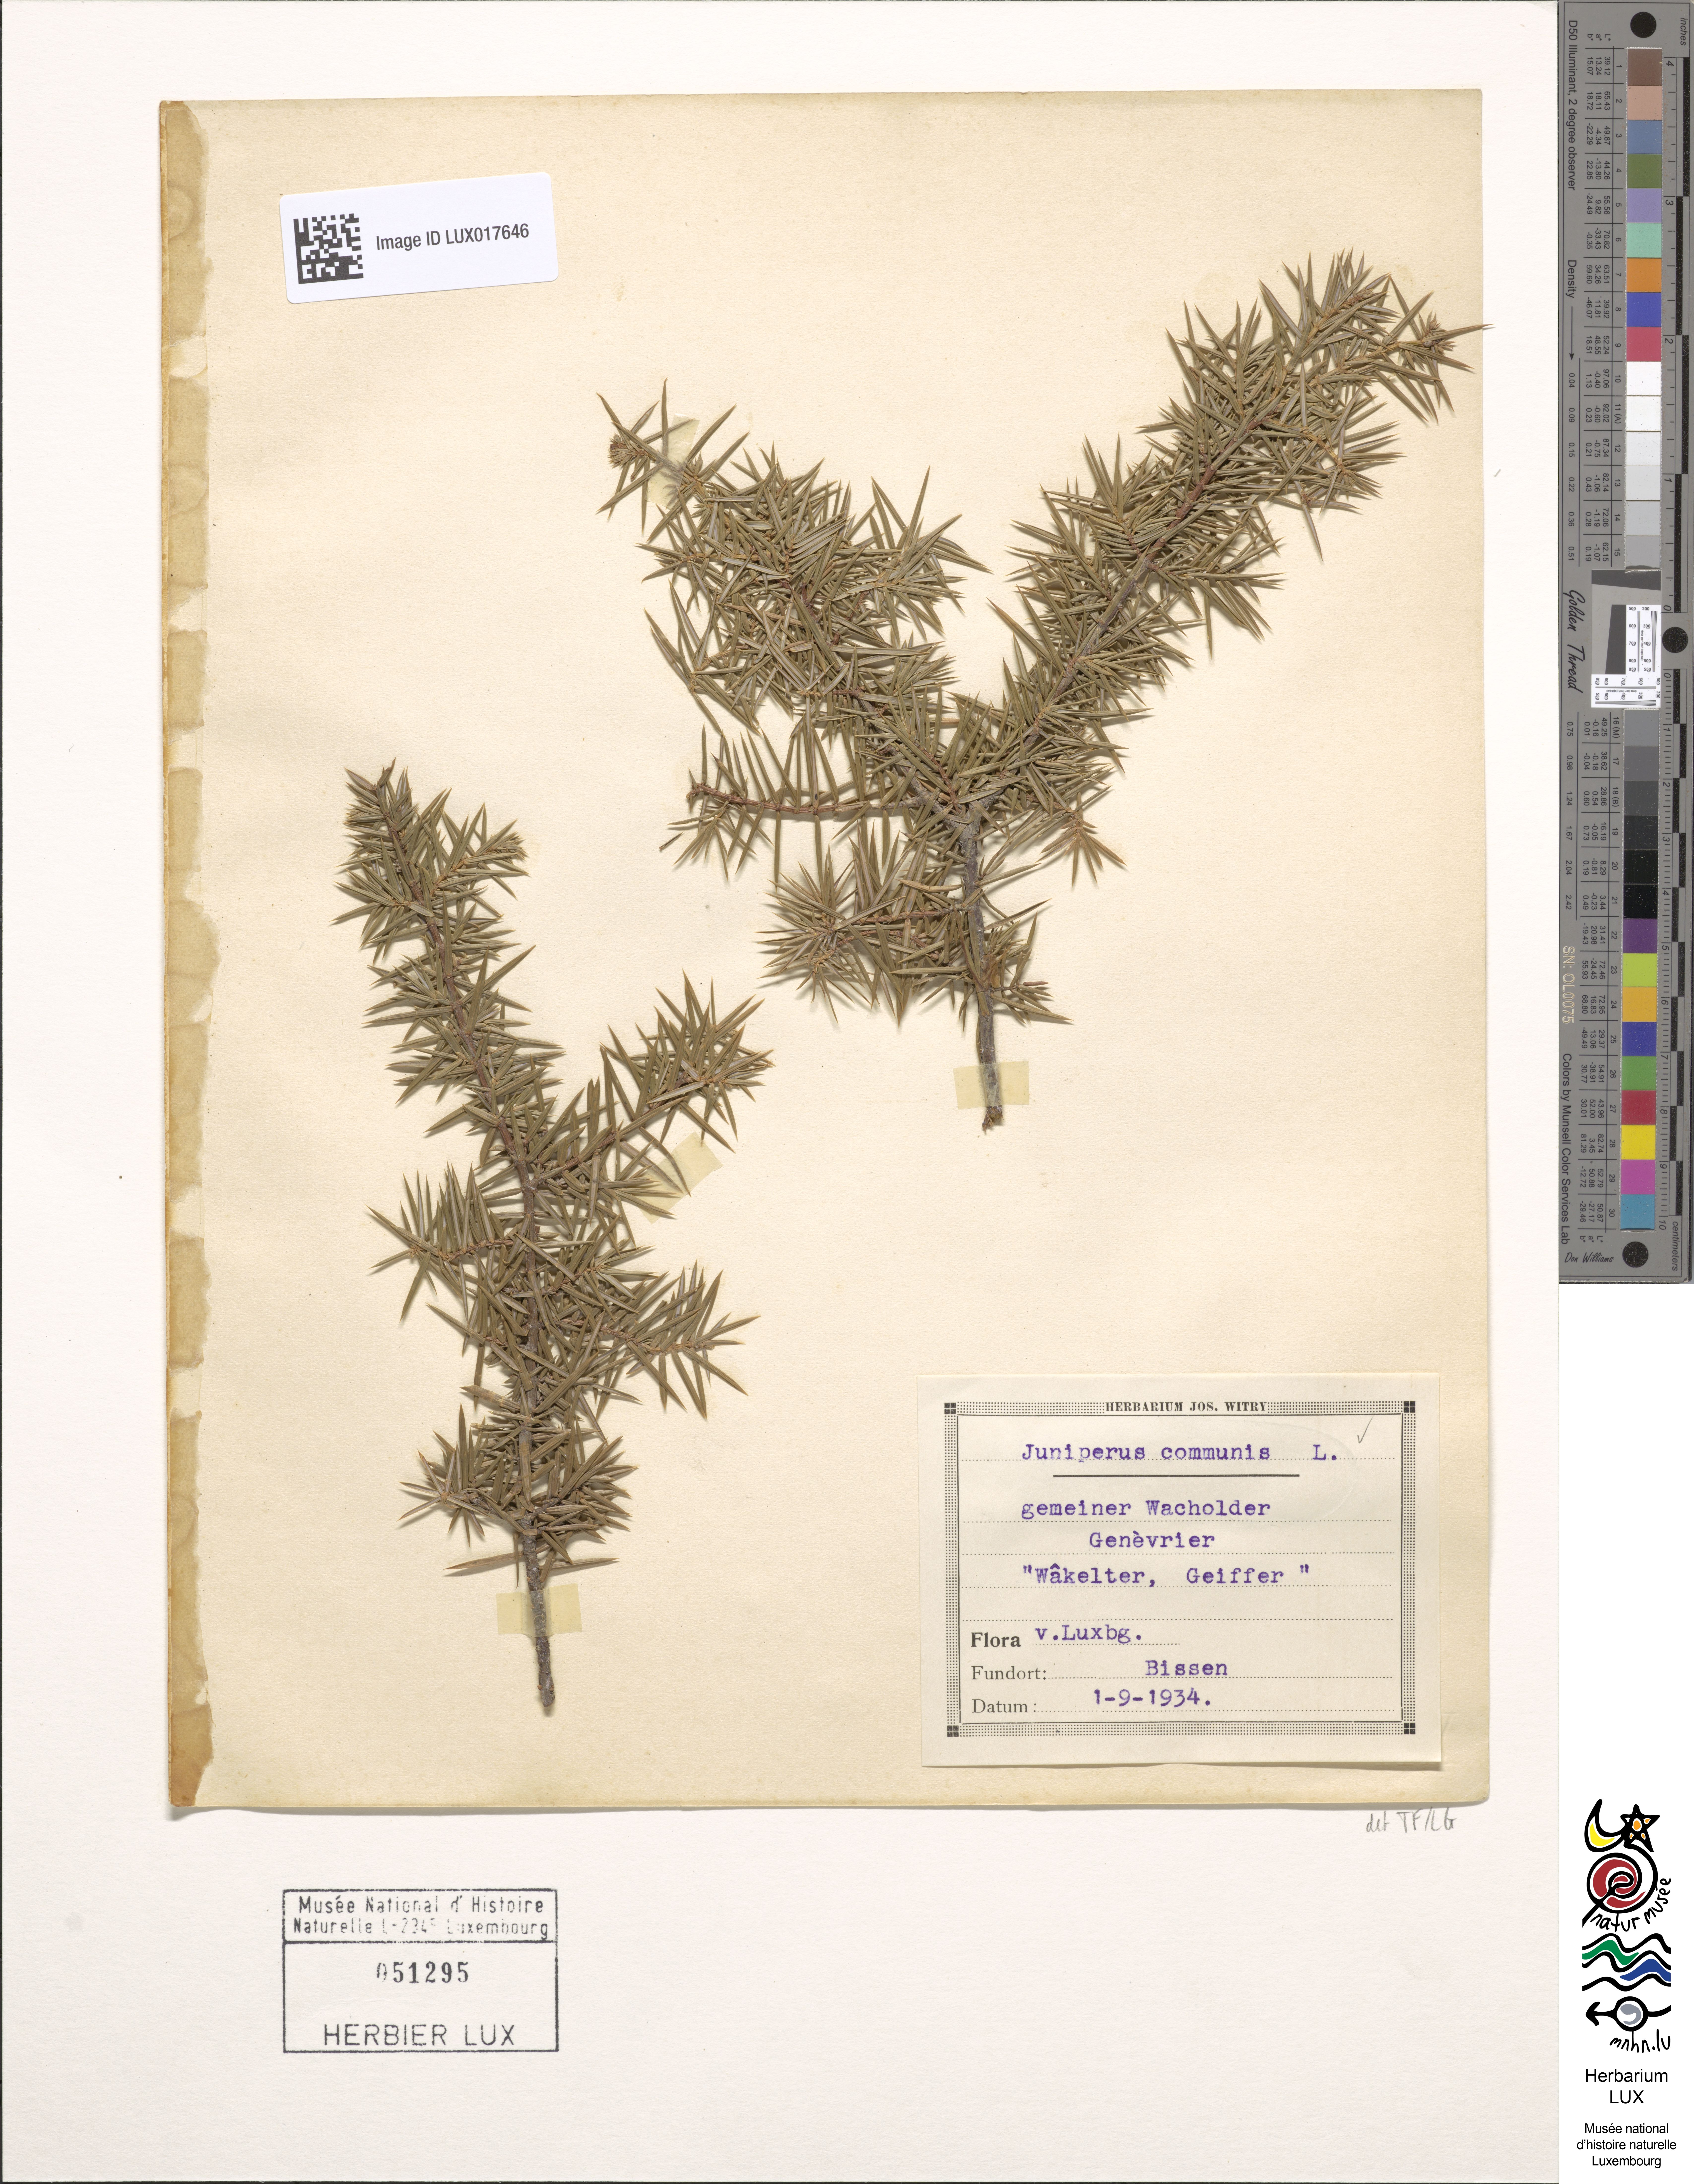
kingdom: Plantae
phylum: Tracheophyta
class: Pinopsida
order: Pinales
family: Cupressaceae
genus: Juniperus
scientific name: Juniperus communis
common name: Common juniper
